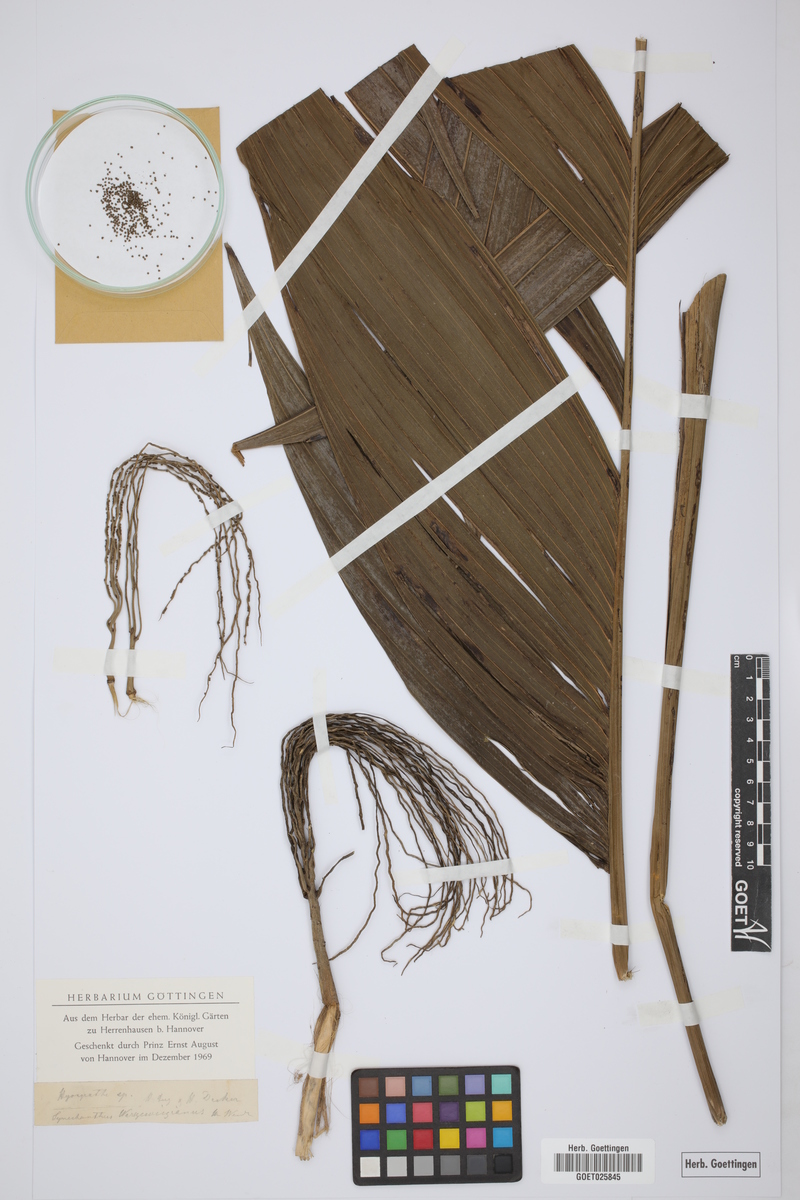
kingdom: Plantae
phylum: Tracheophyta
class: Liliopsida
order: Arecales
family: Arecaceae
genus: Synechanthus
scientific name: Synechanthus warscewiczianus
